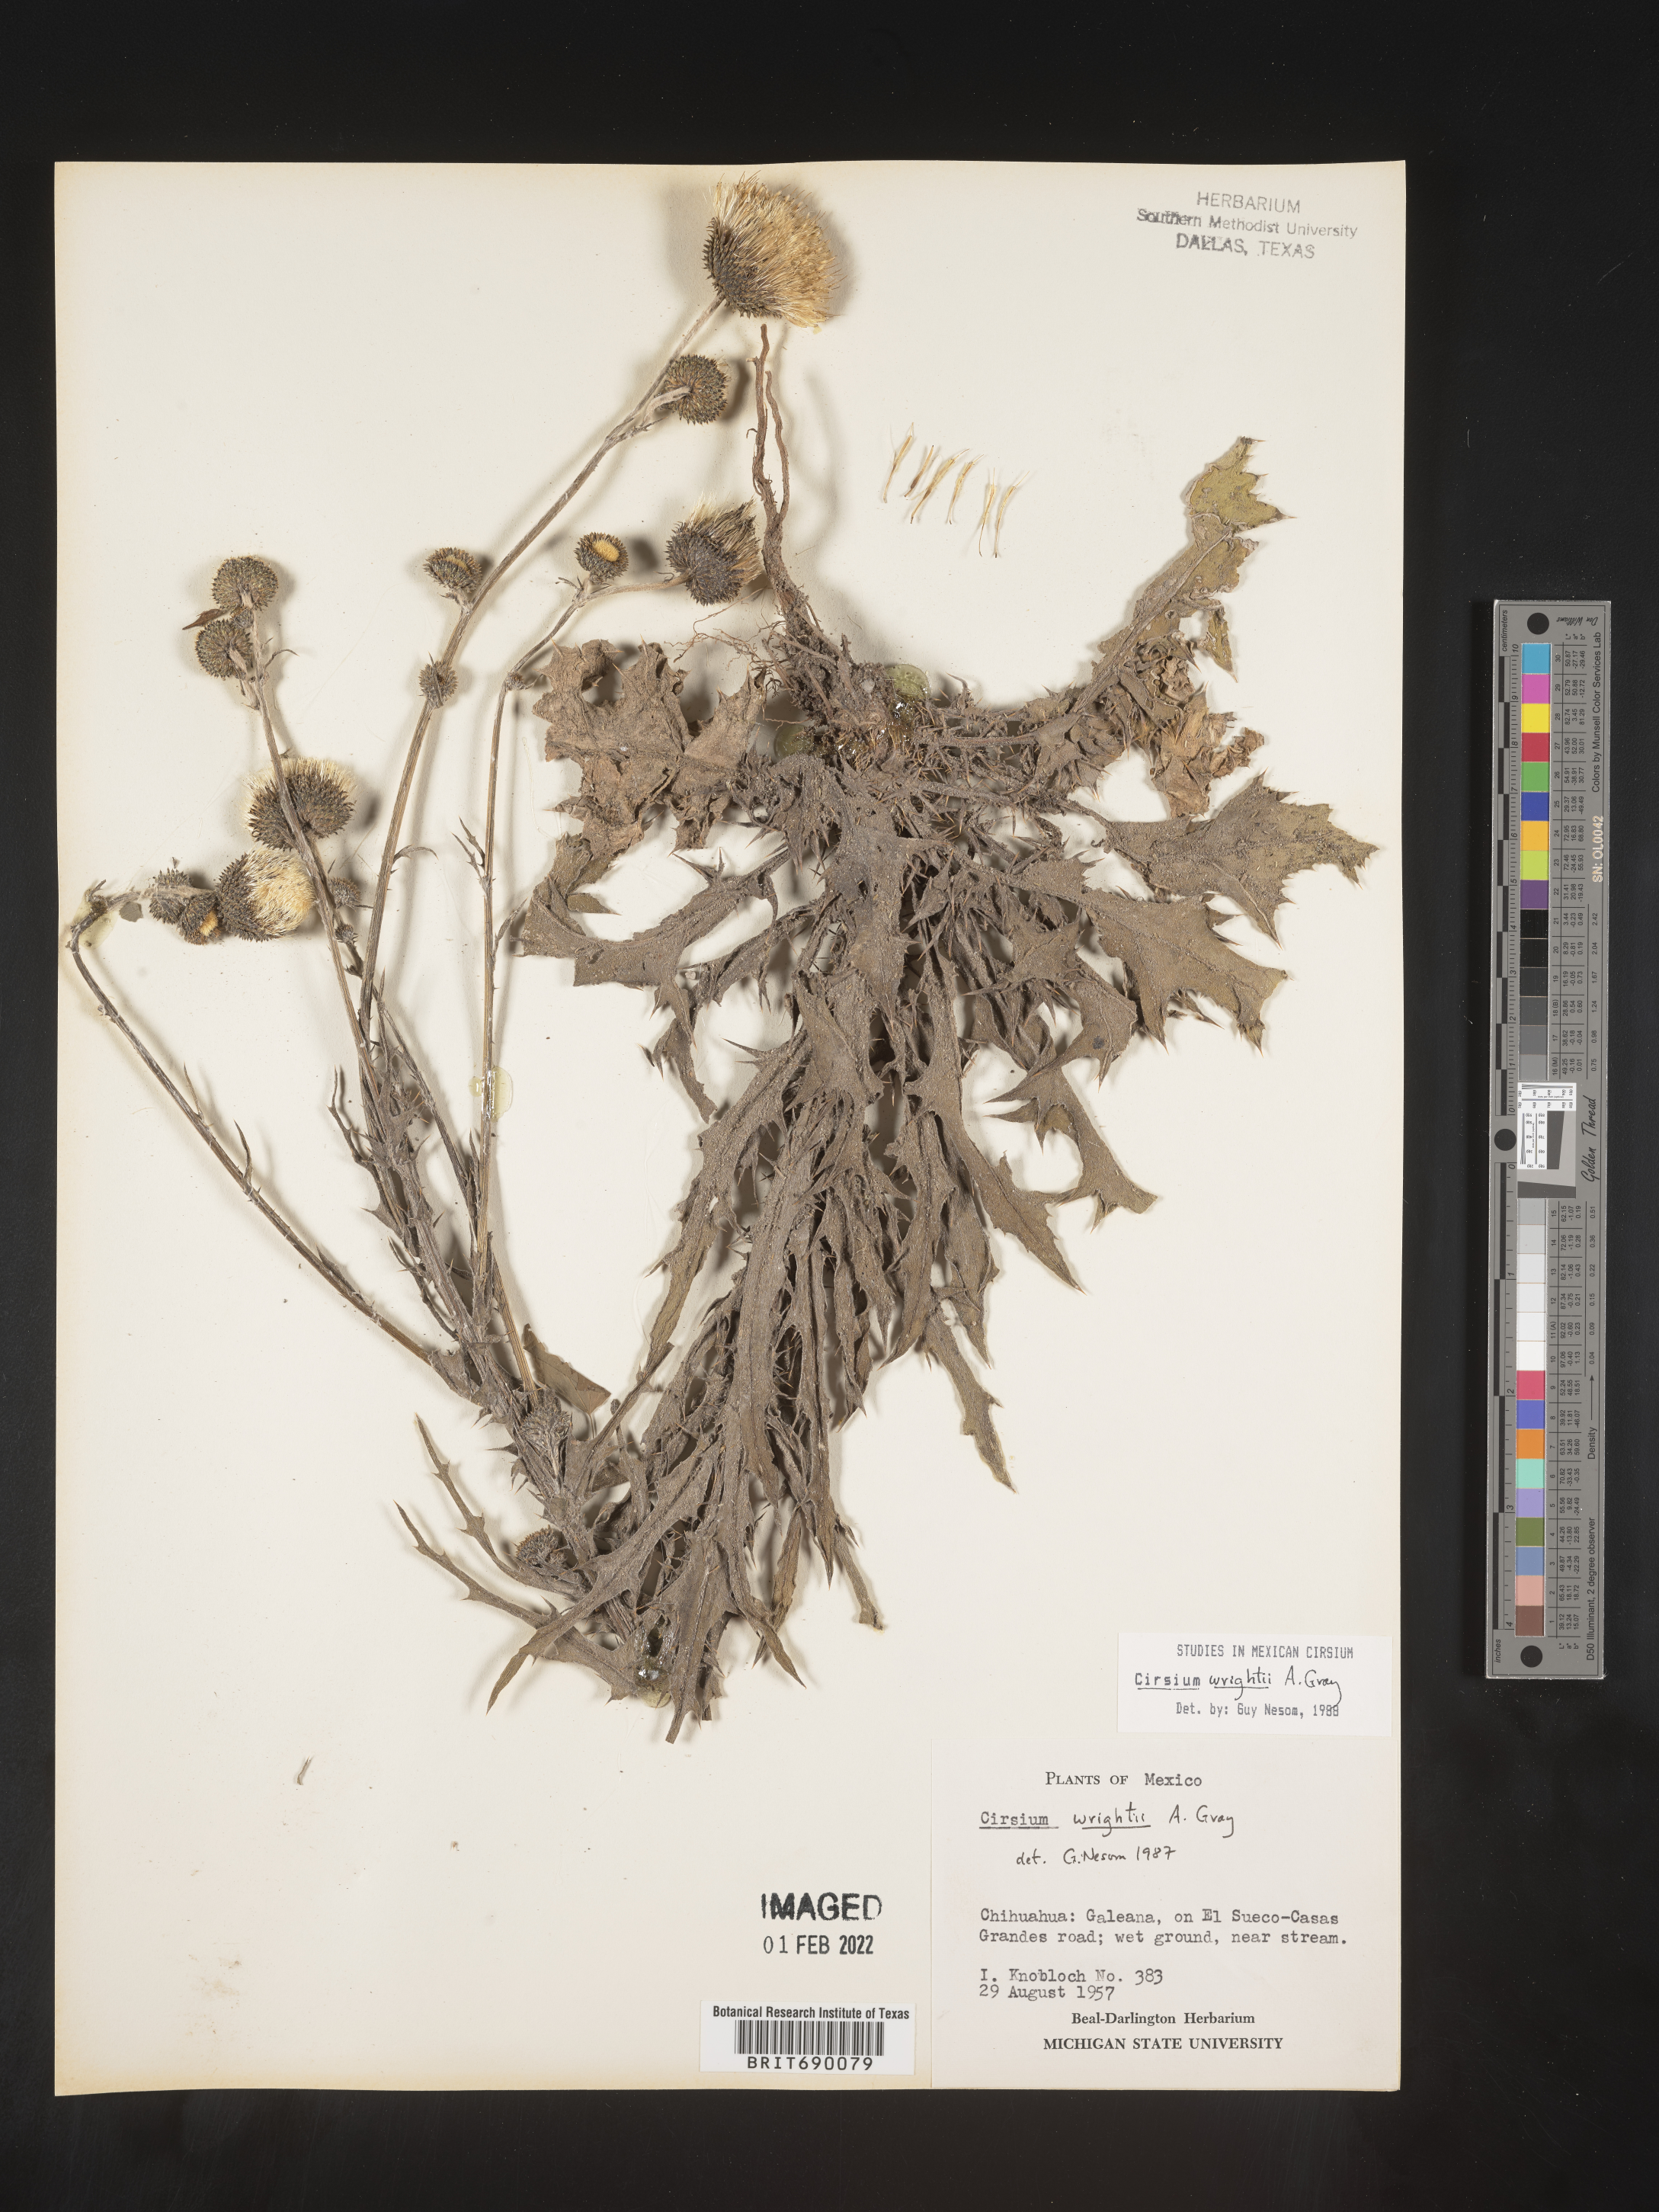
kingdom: Plantae
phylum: Tracheophyta
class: Magnoliopsida
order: Asterales
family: Asteraceae
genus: Cirsium
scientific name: Cirsium
